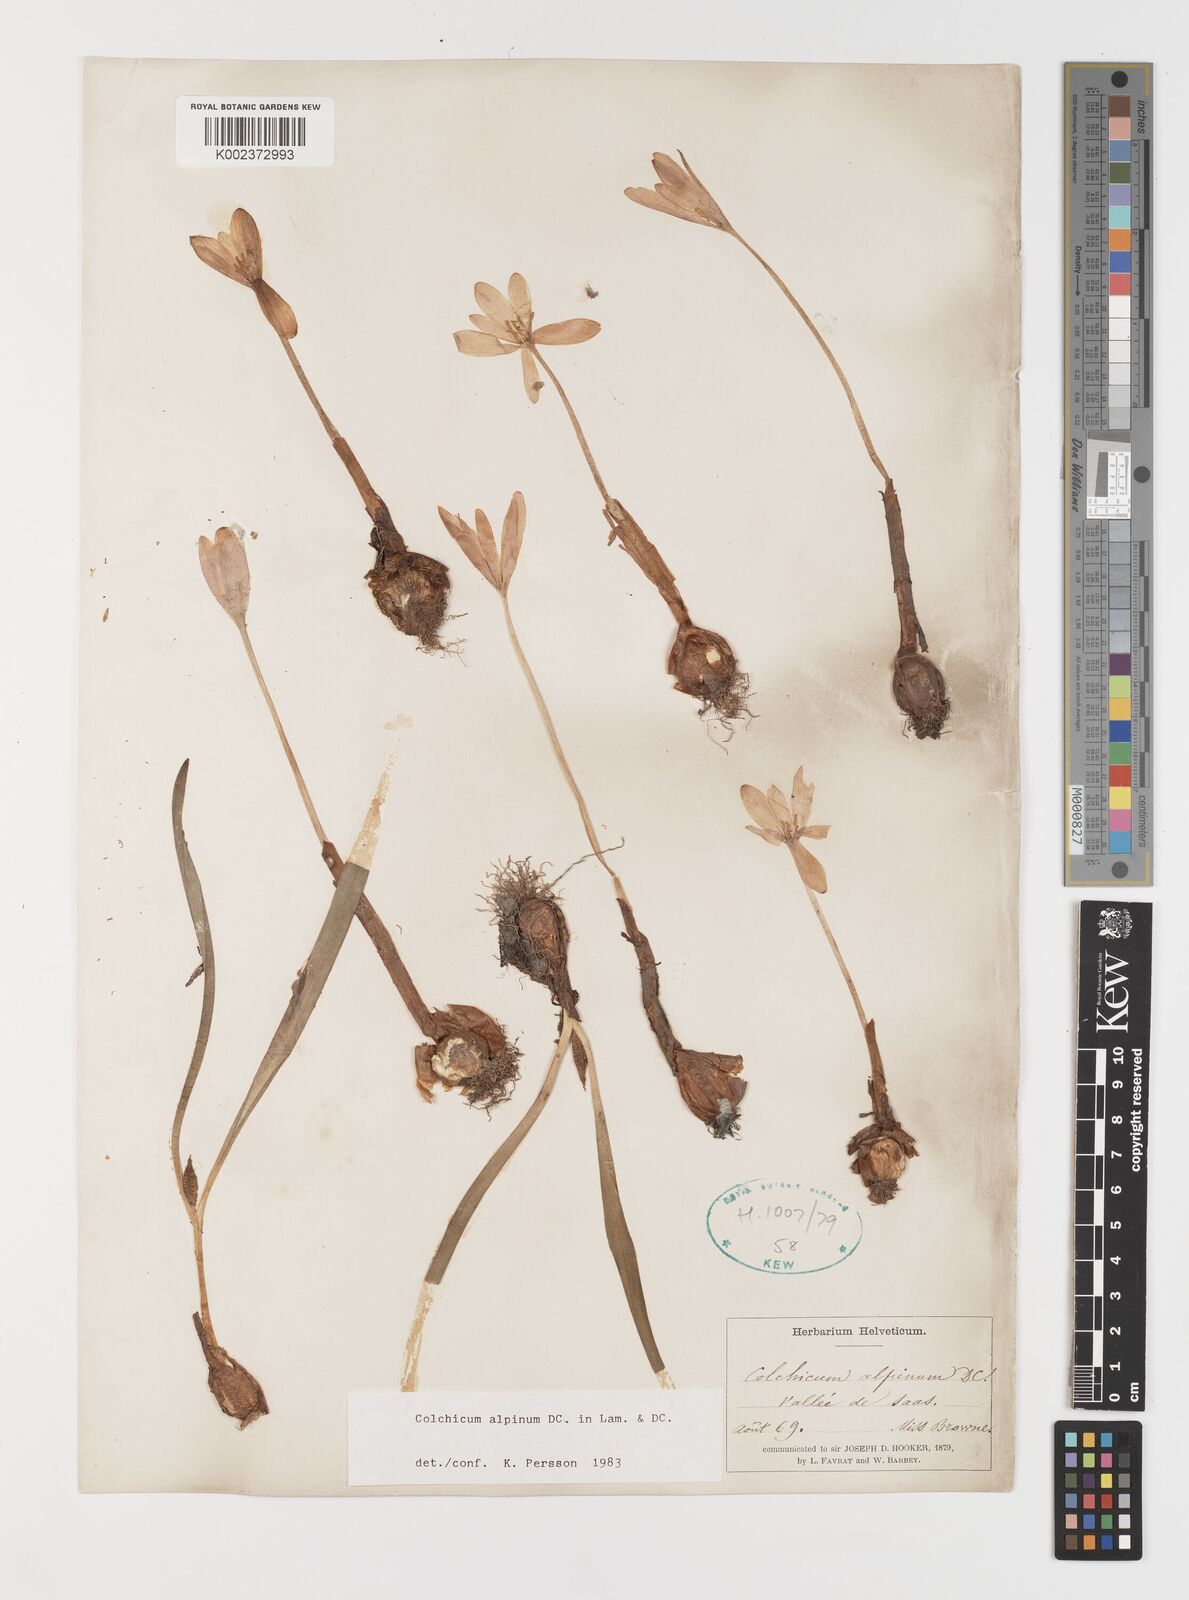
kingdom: Plantae
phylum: Tracheophyta
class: Liliopsida
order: Liliales
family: Colchicaceae
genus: Colchicum
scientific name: Colchicum alpinum
